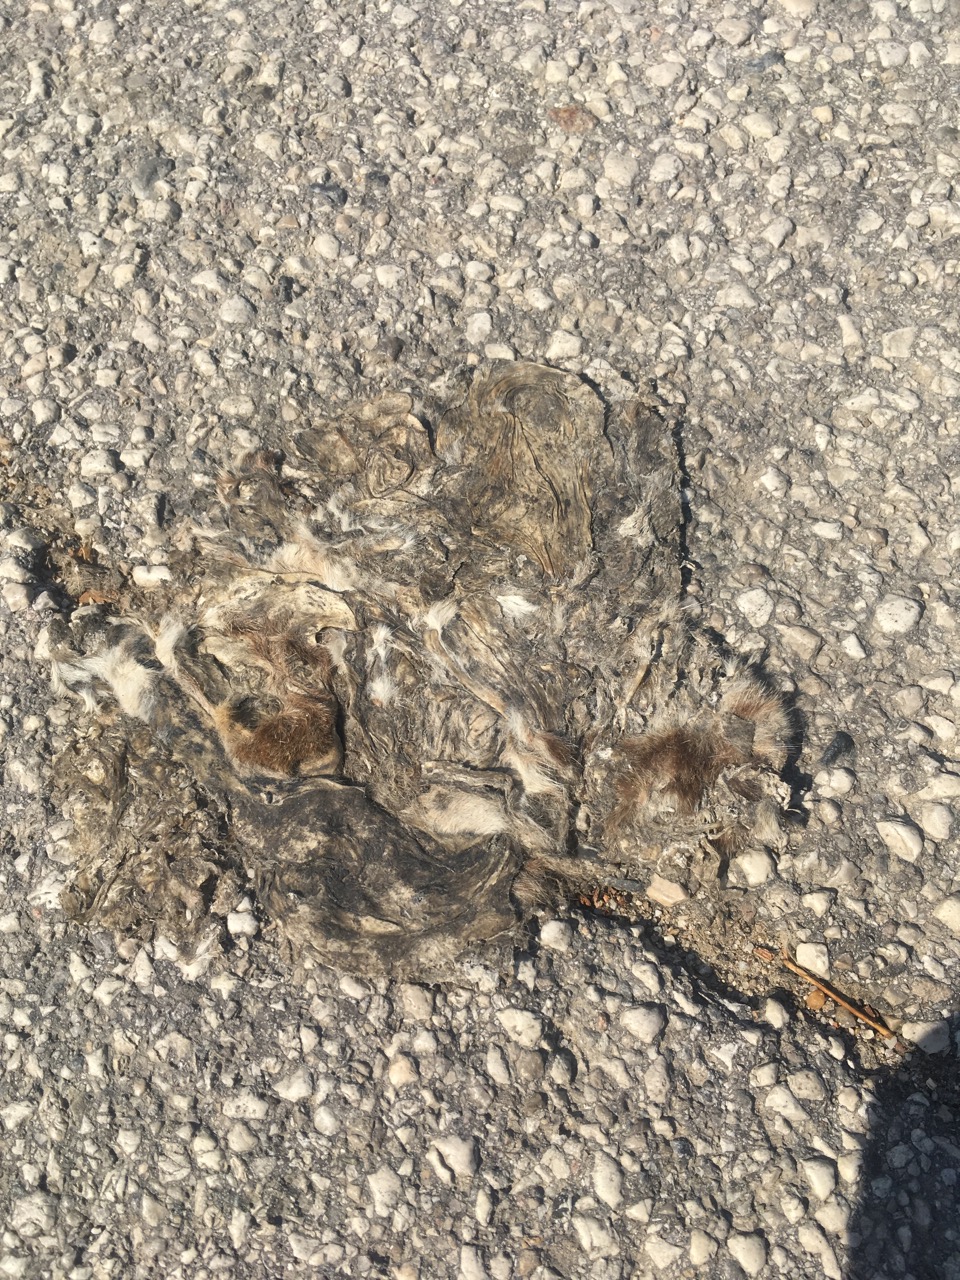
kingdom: Animalia
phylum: Chordata
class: Mammalia
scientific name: Mammalia
